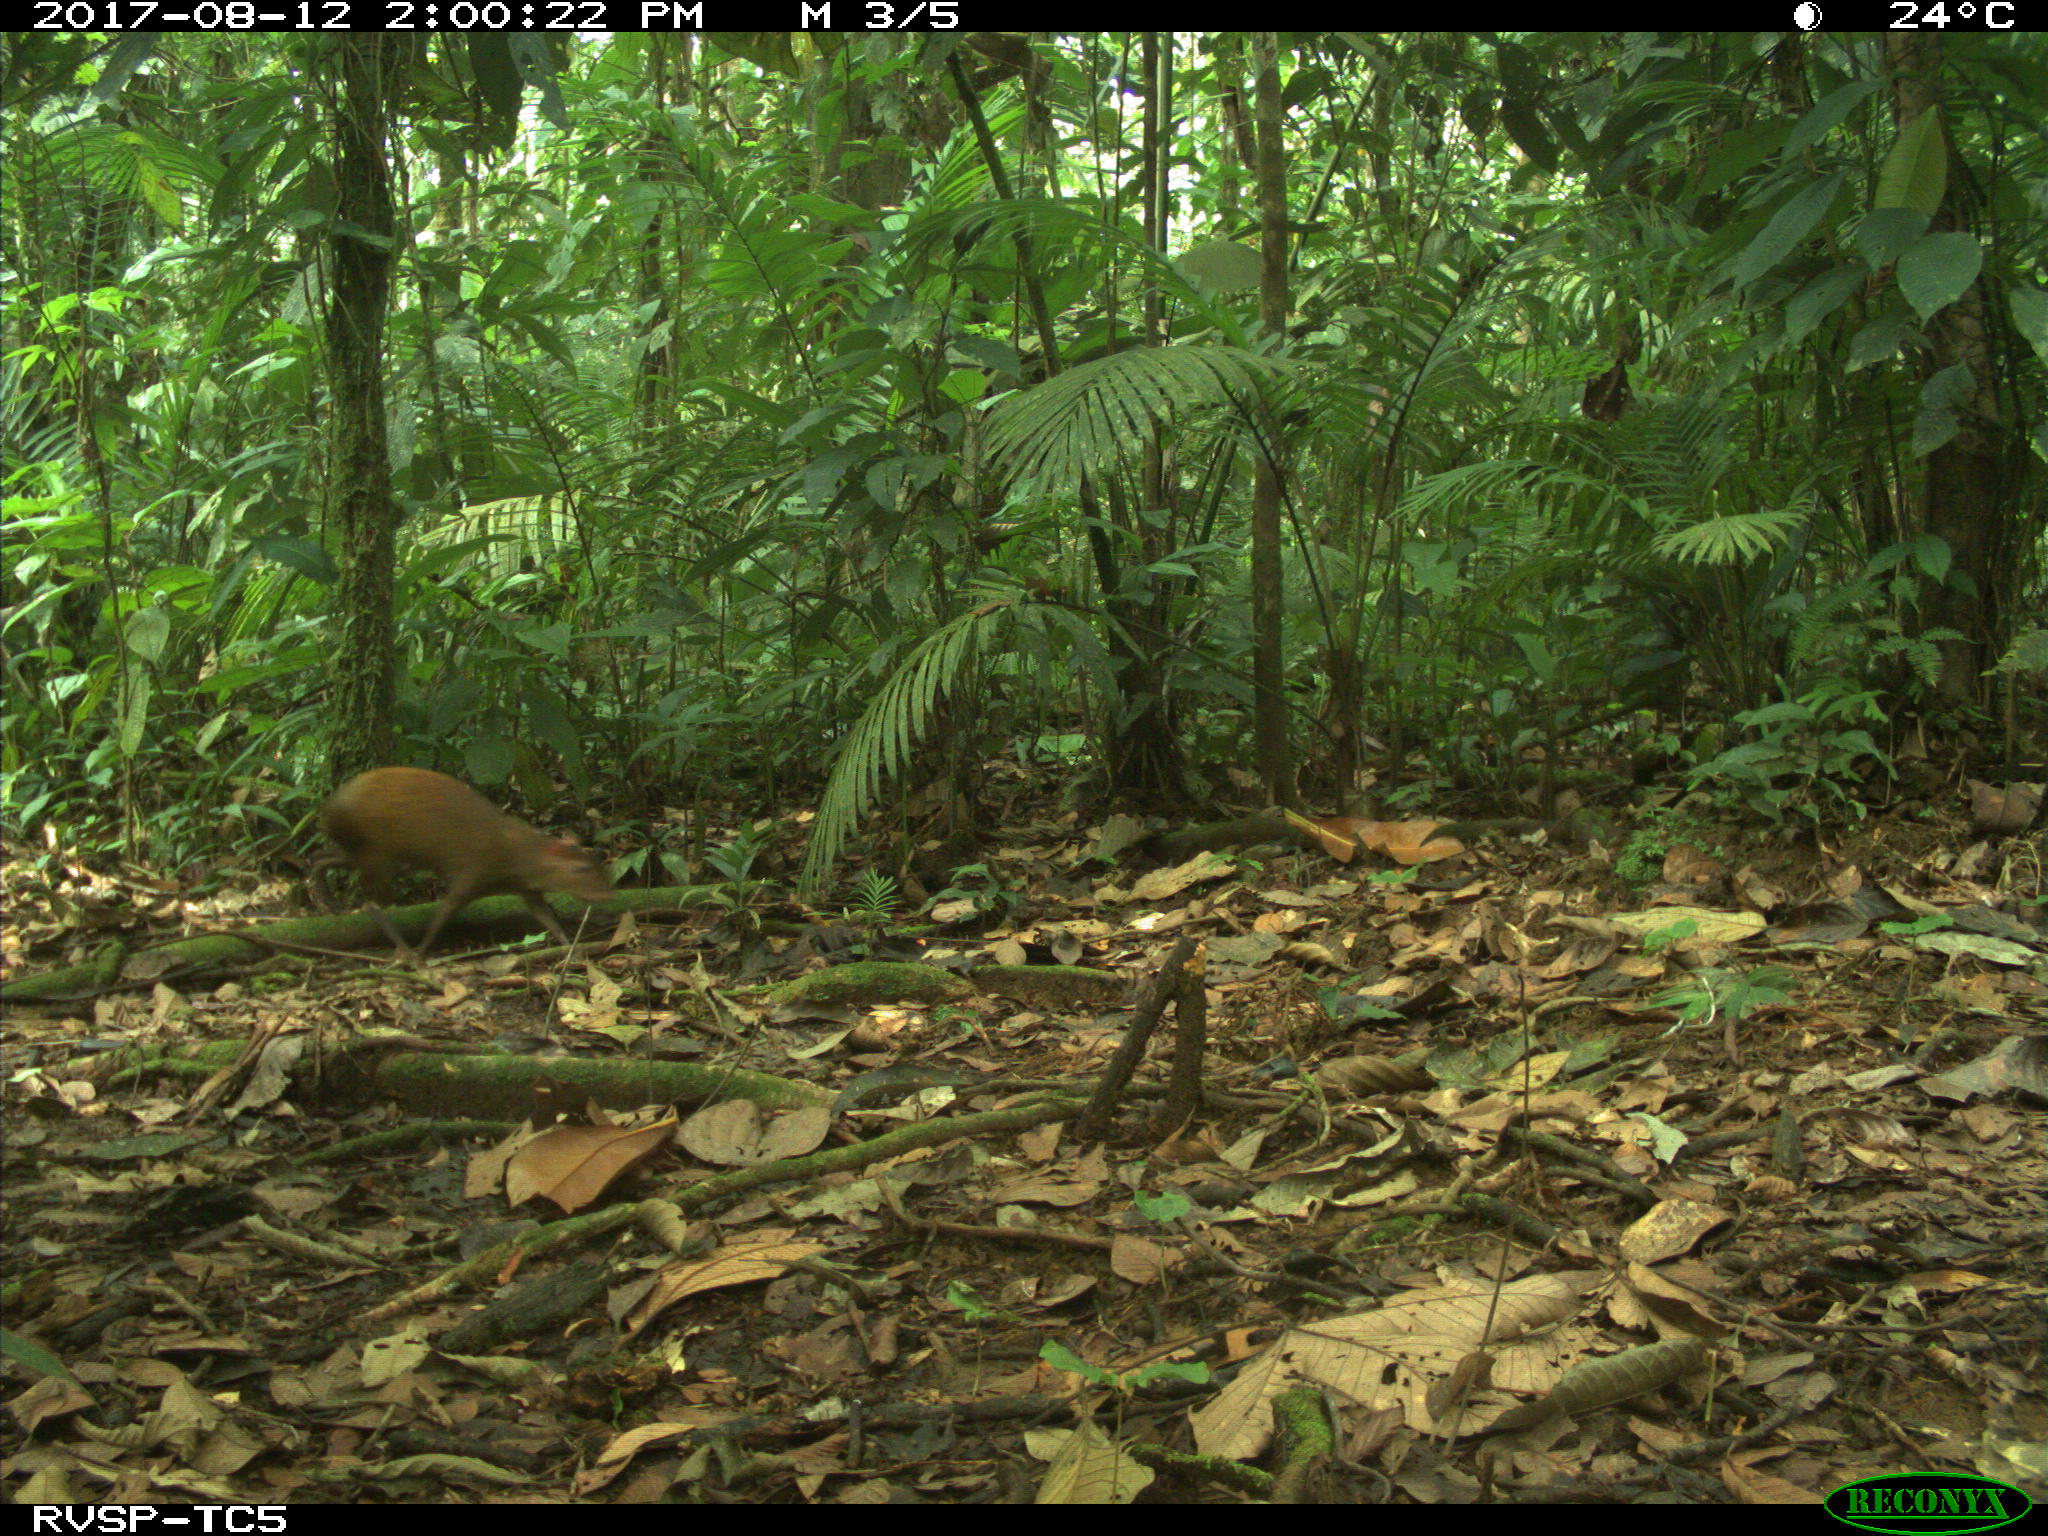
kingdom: Animalia
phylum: Chordata
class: Mammalia
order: Rodentia
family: Dasyproctidae
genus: Dasyprocta
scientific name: Dasyprocta punctata
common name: Central american agouti
